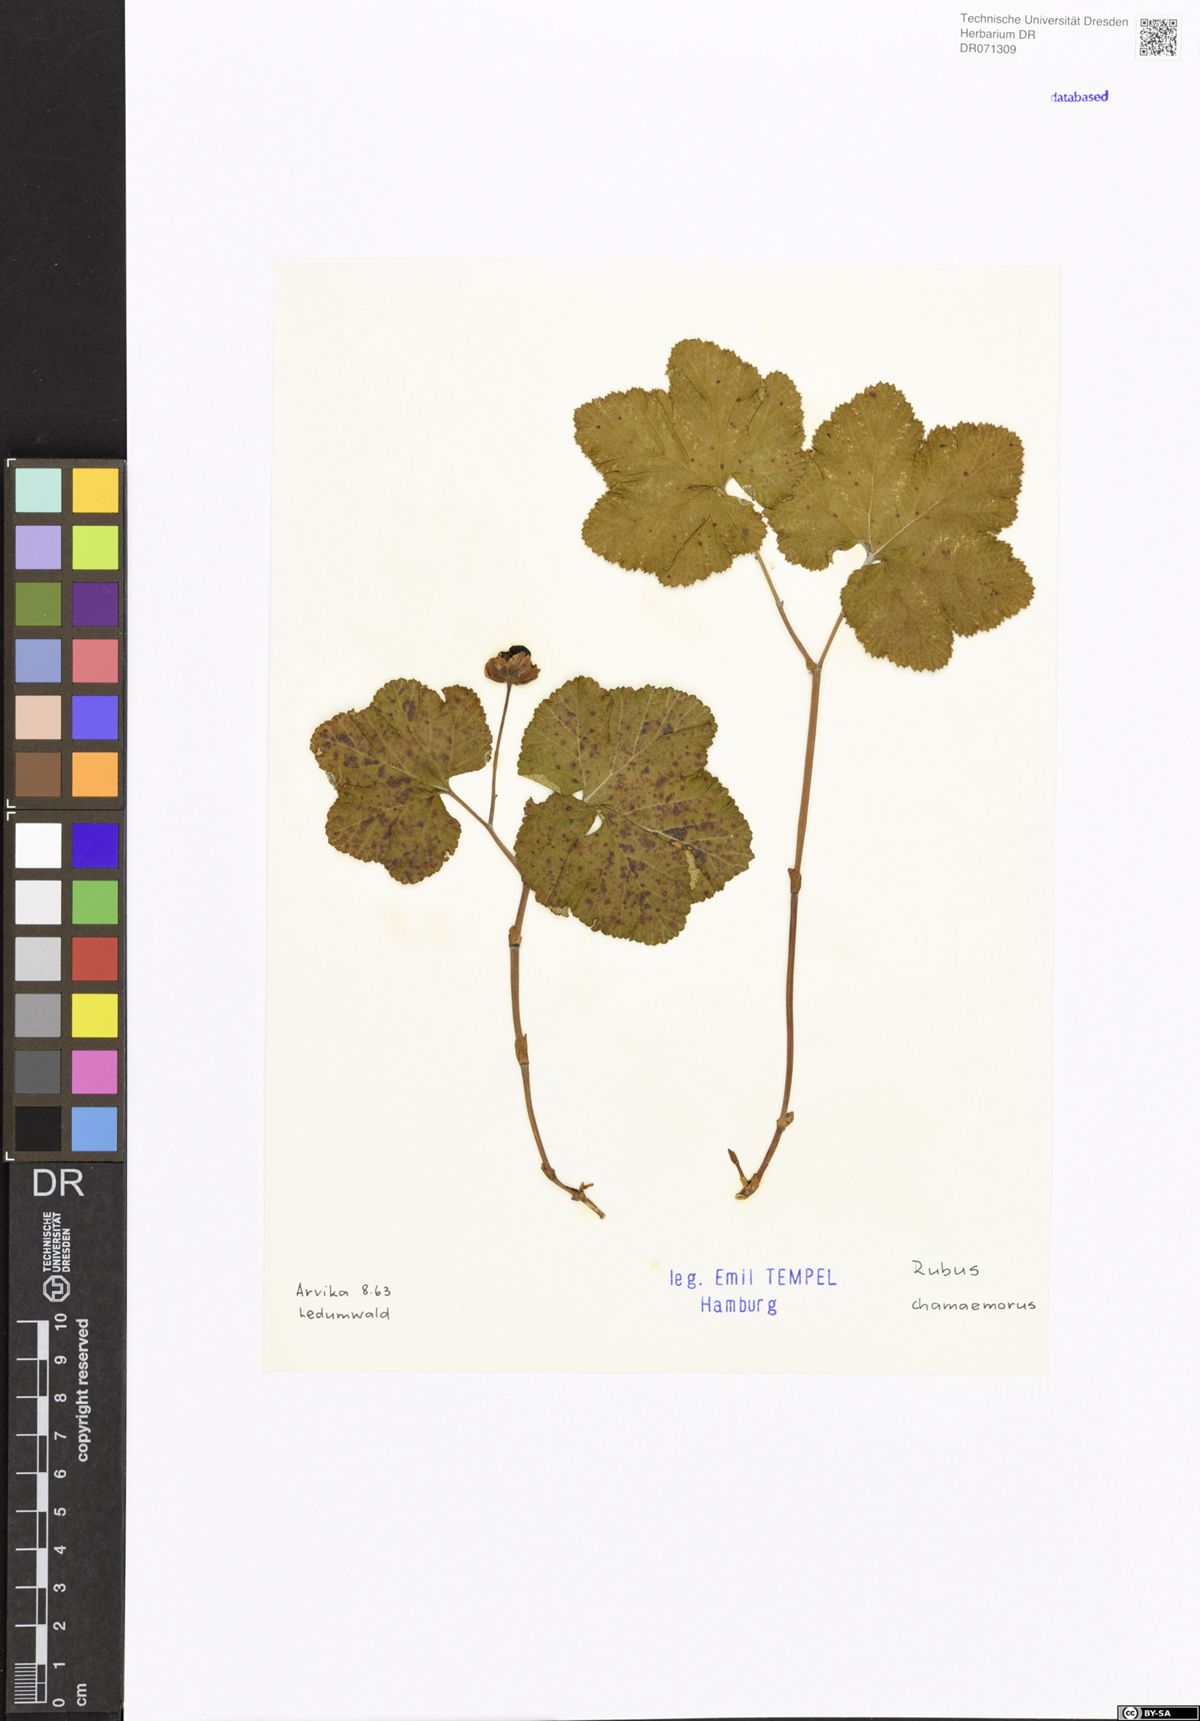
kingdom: Plantae
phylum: Tracheophyta
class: Magnoliopsida
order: Rosales
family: Rosaceae
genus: Rubus
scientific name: Rubus chamaemorus
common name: Cloudberry
